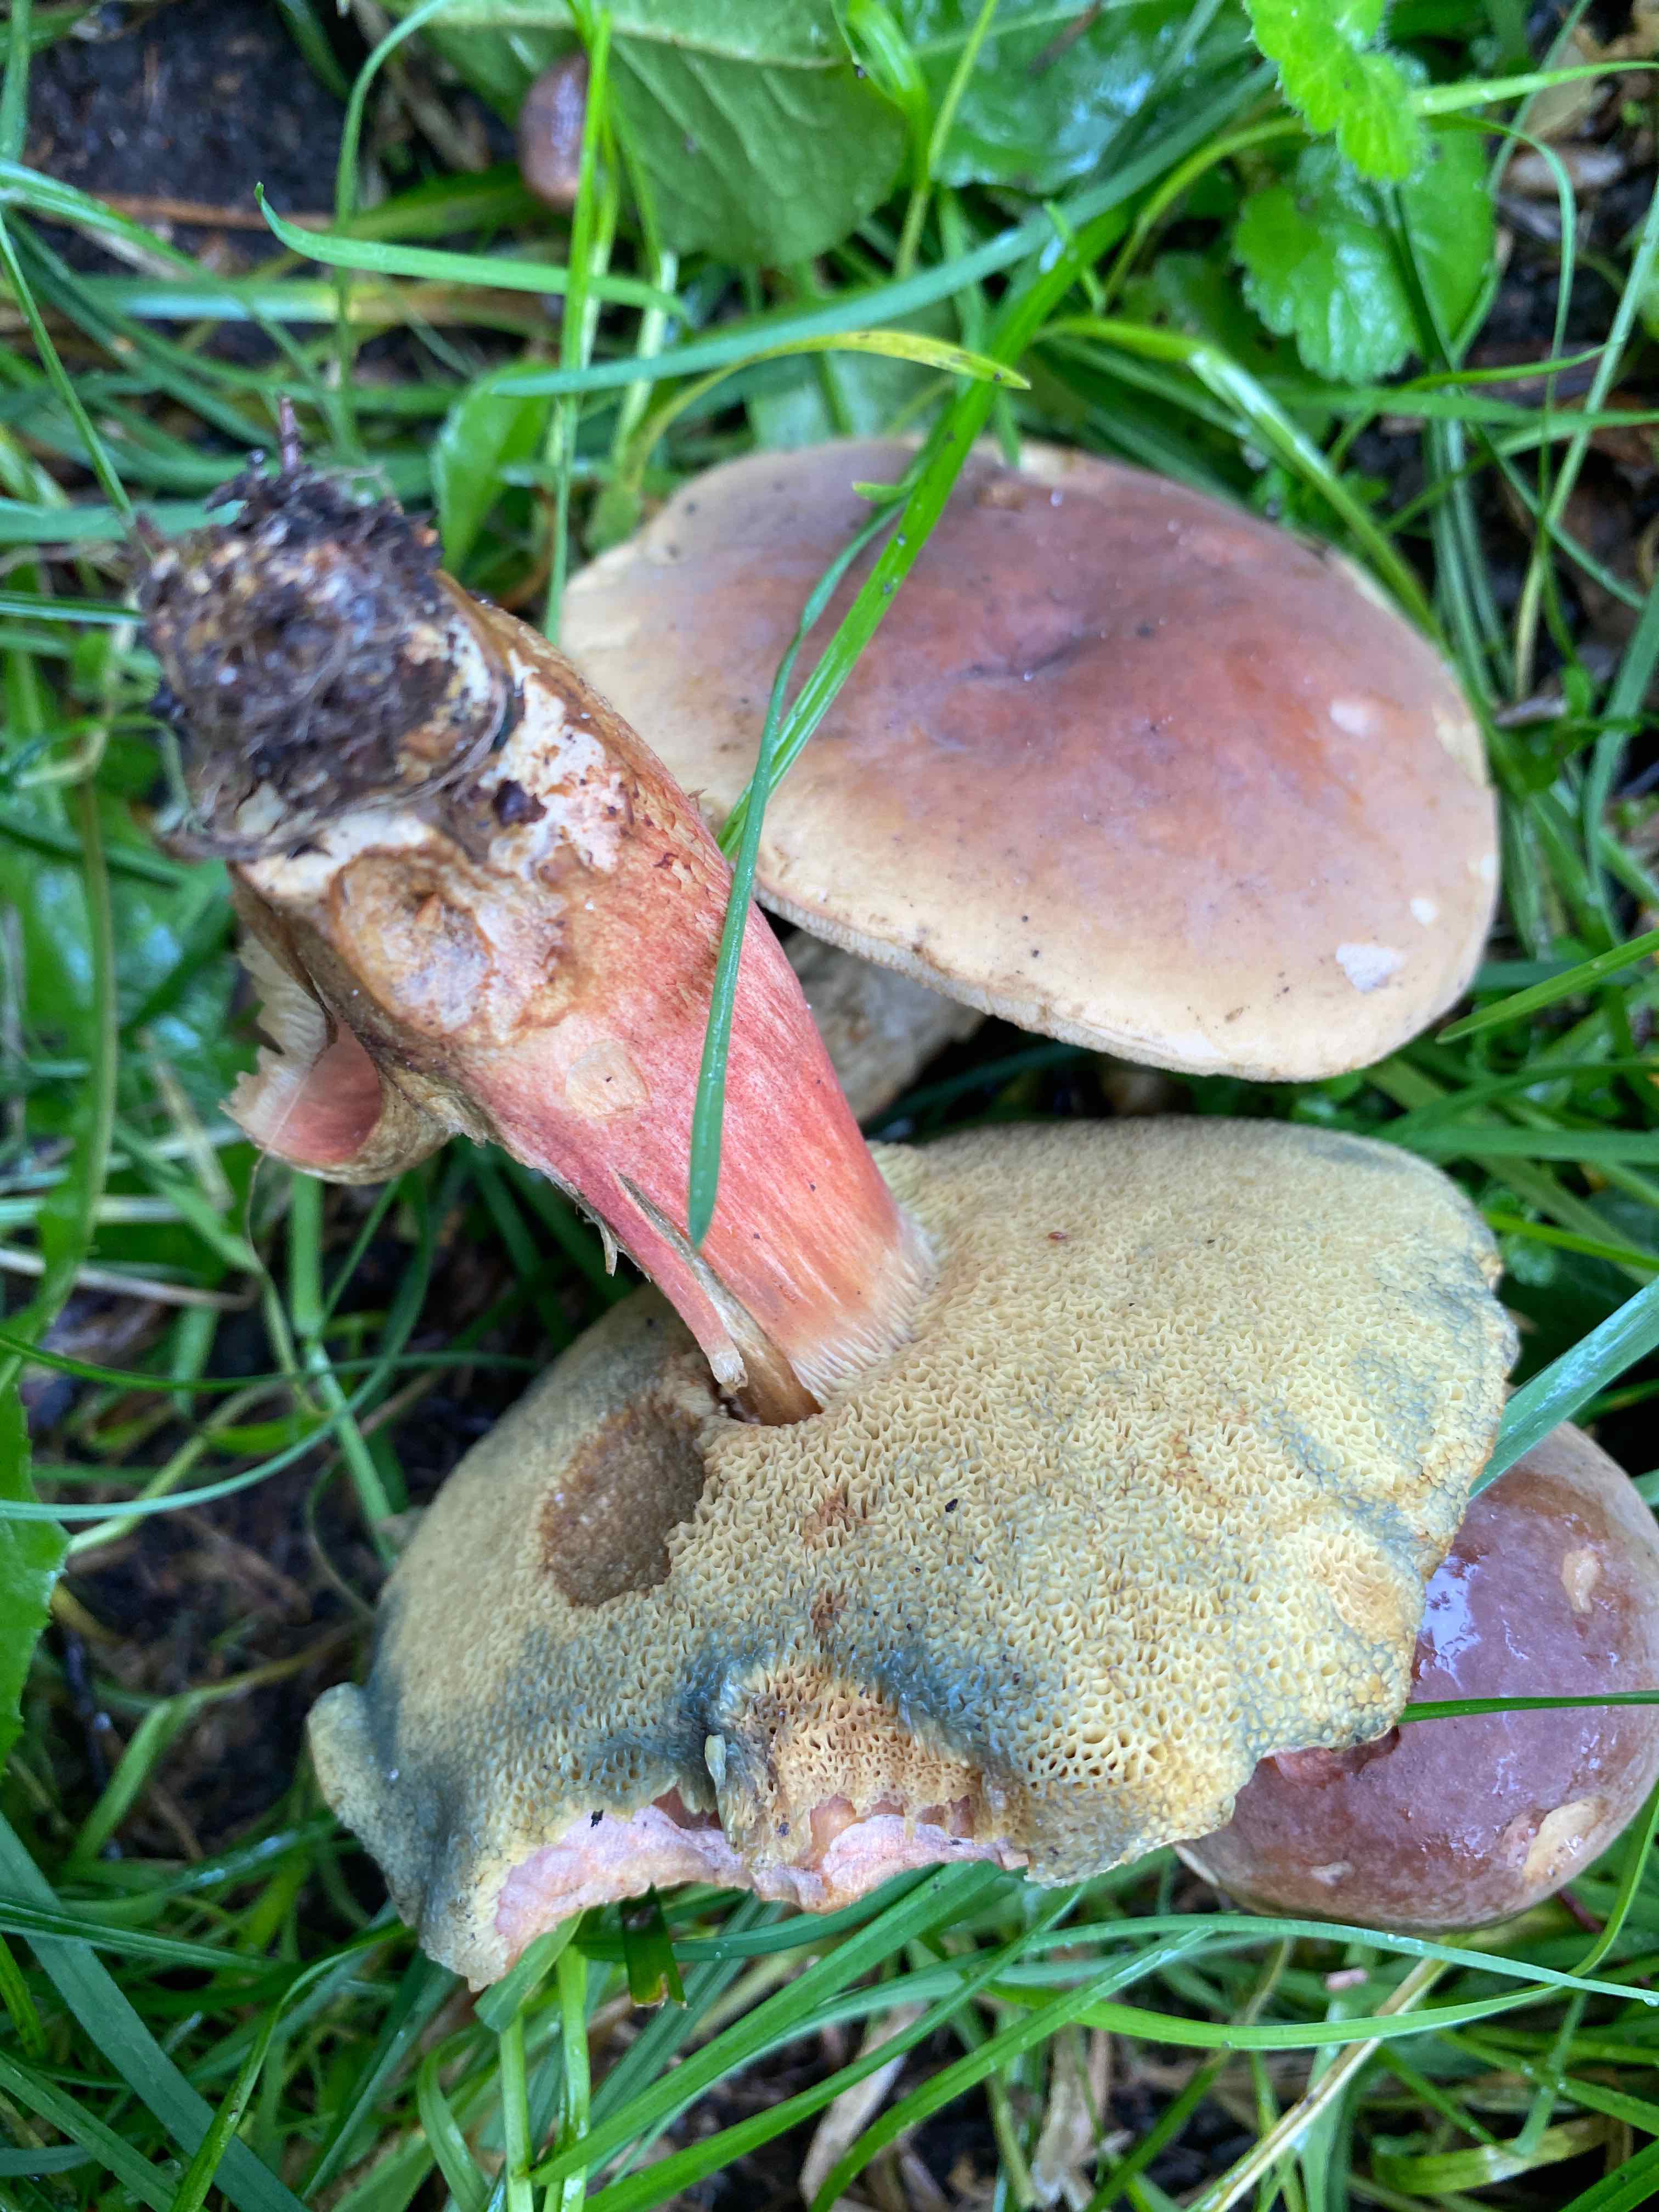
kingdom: Fungi
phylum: Basidiomycota
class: Agaricomycetes
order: Boletales
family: Boletaceae
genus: Hortiboletus
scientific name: Hortiboletus
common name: dværgrørhat
